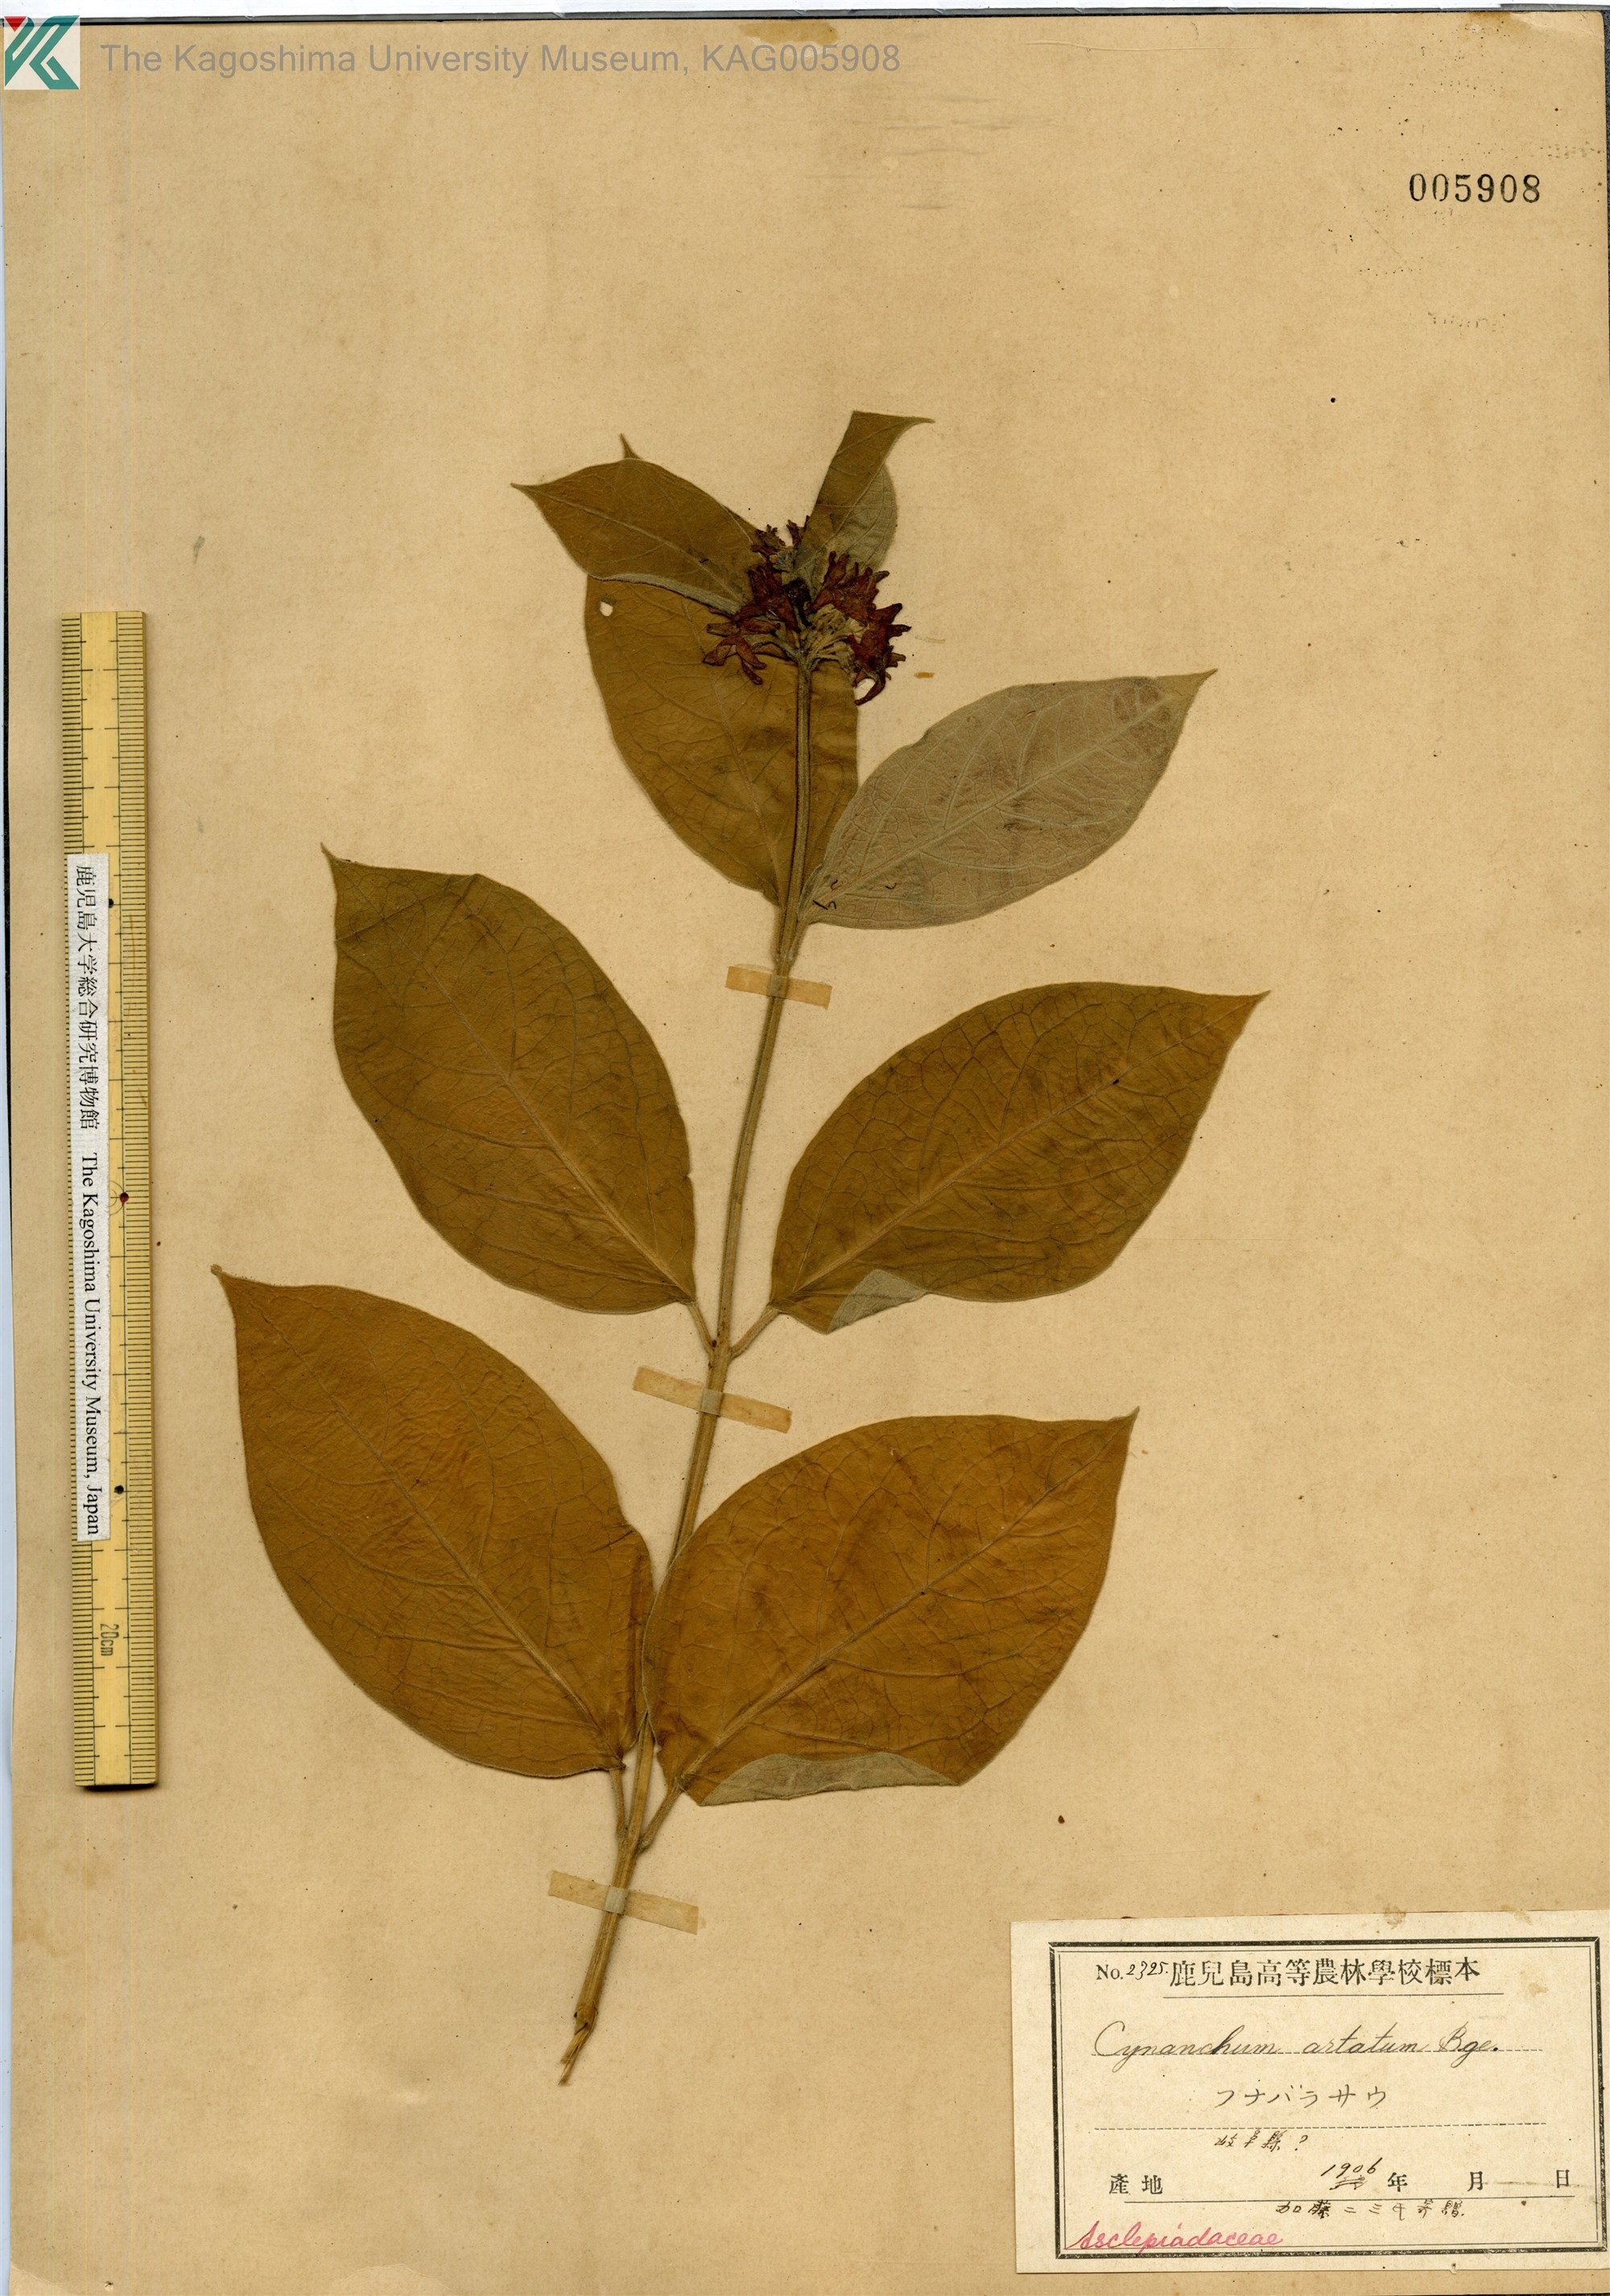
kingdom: Plantae
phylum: Tracheophyta
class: Magnoliopsida
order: Gentianales
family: Apocynaceae
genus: Vincetoxicum
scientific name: Vincetoxicum atratum
